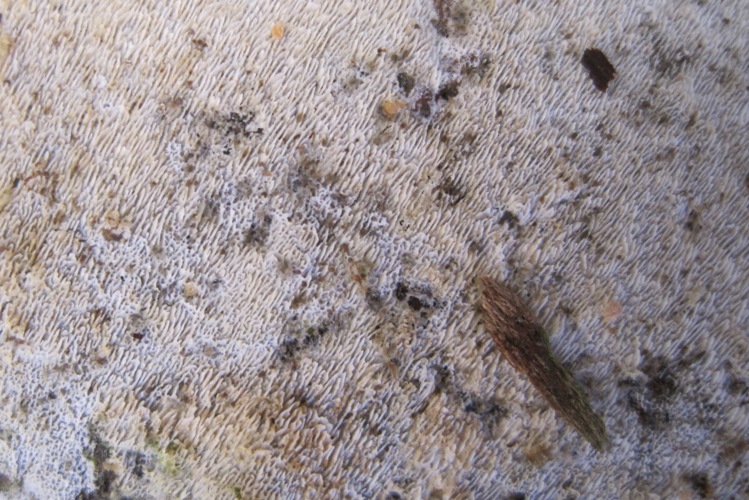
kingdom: Fungi
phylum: Basidiomycota
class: Agaricomycetes
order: Hymenochaetales
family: Schizoporaceae
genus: Xylodon
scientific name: Xylodon subtropicus
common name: labyrint-tandsvamp
